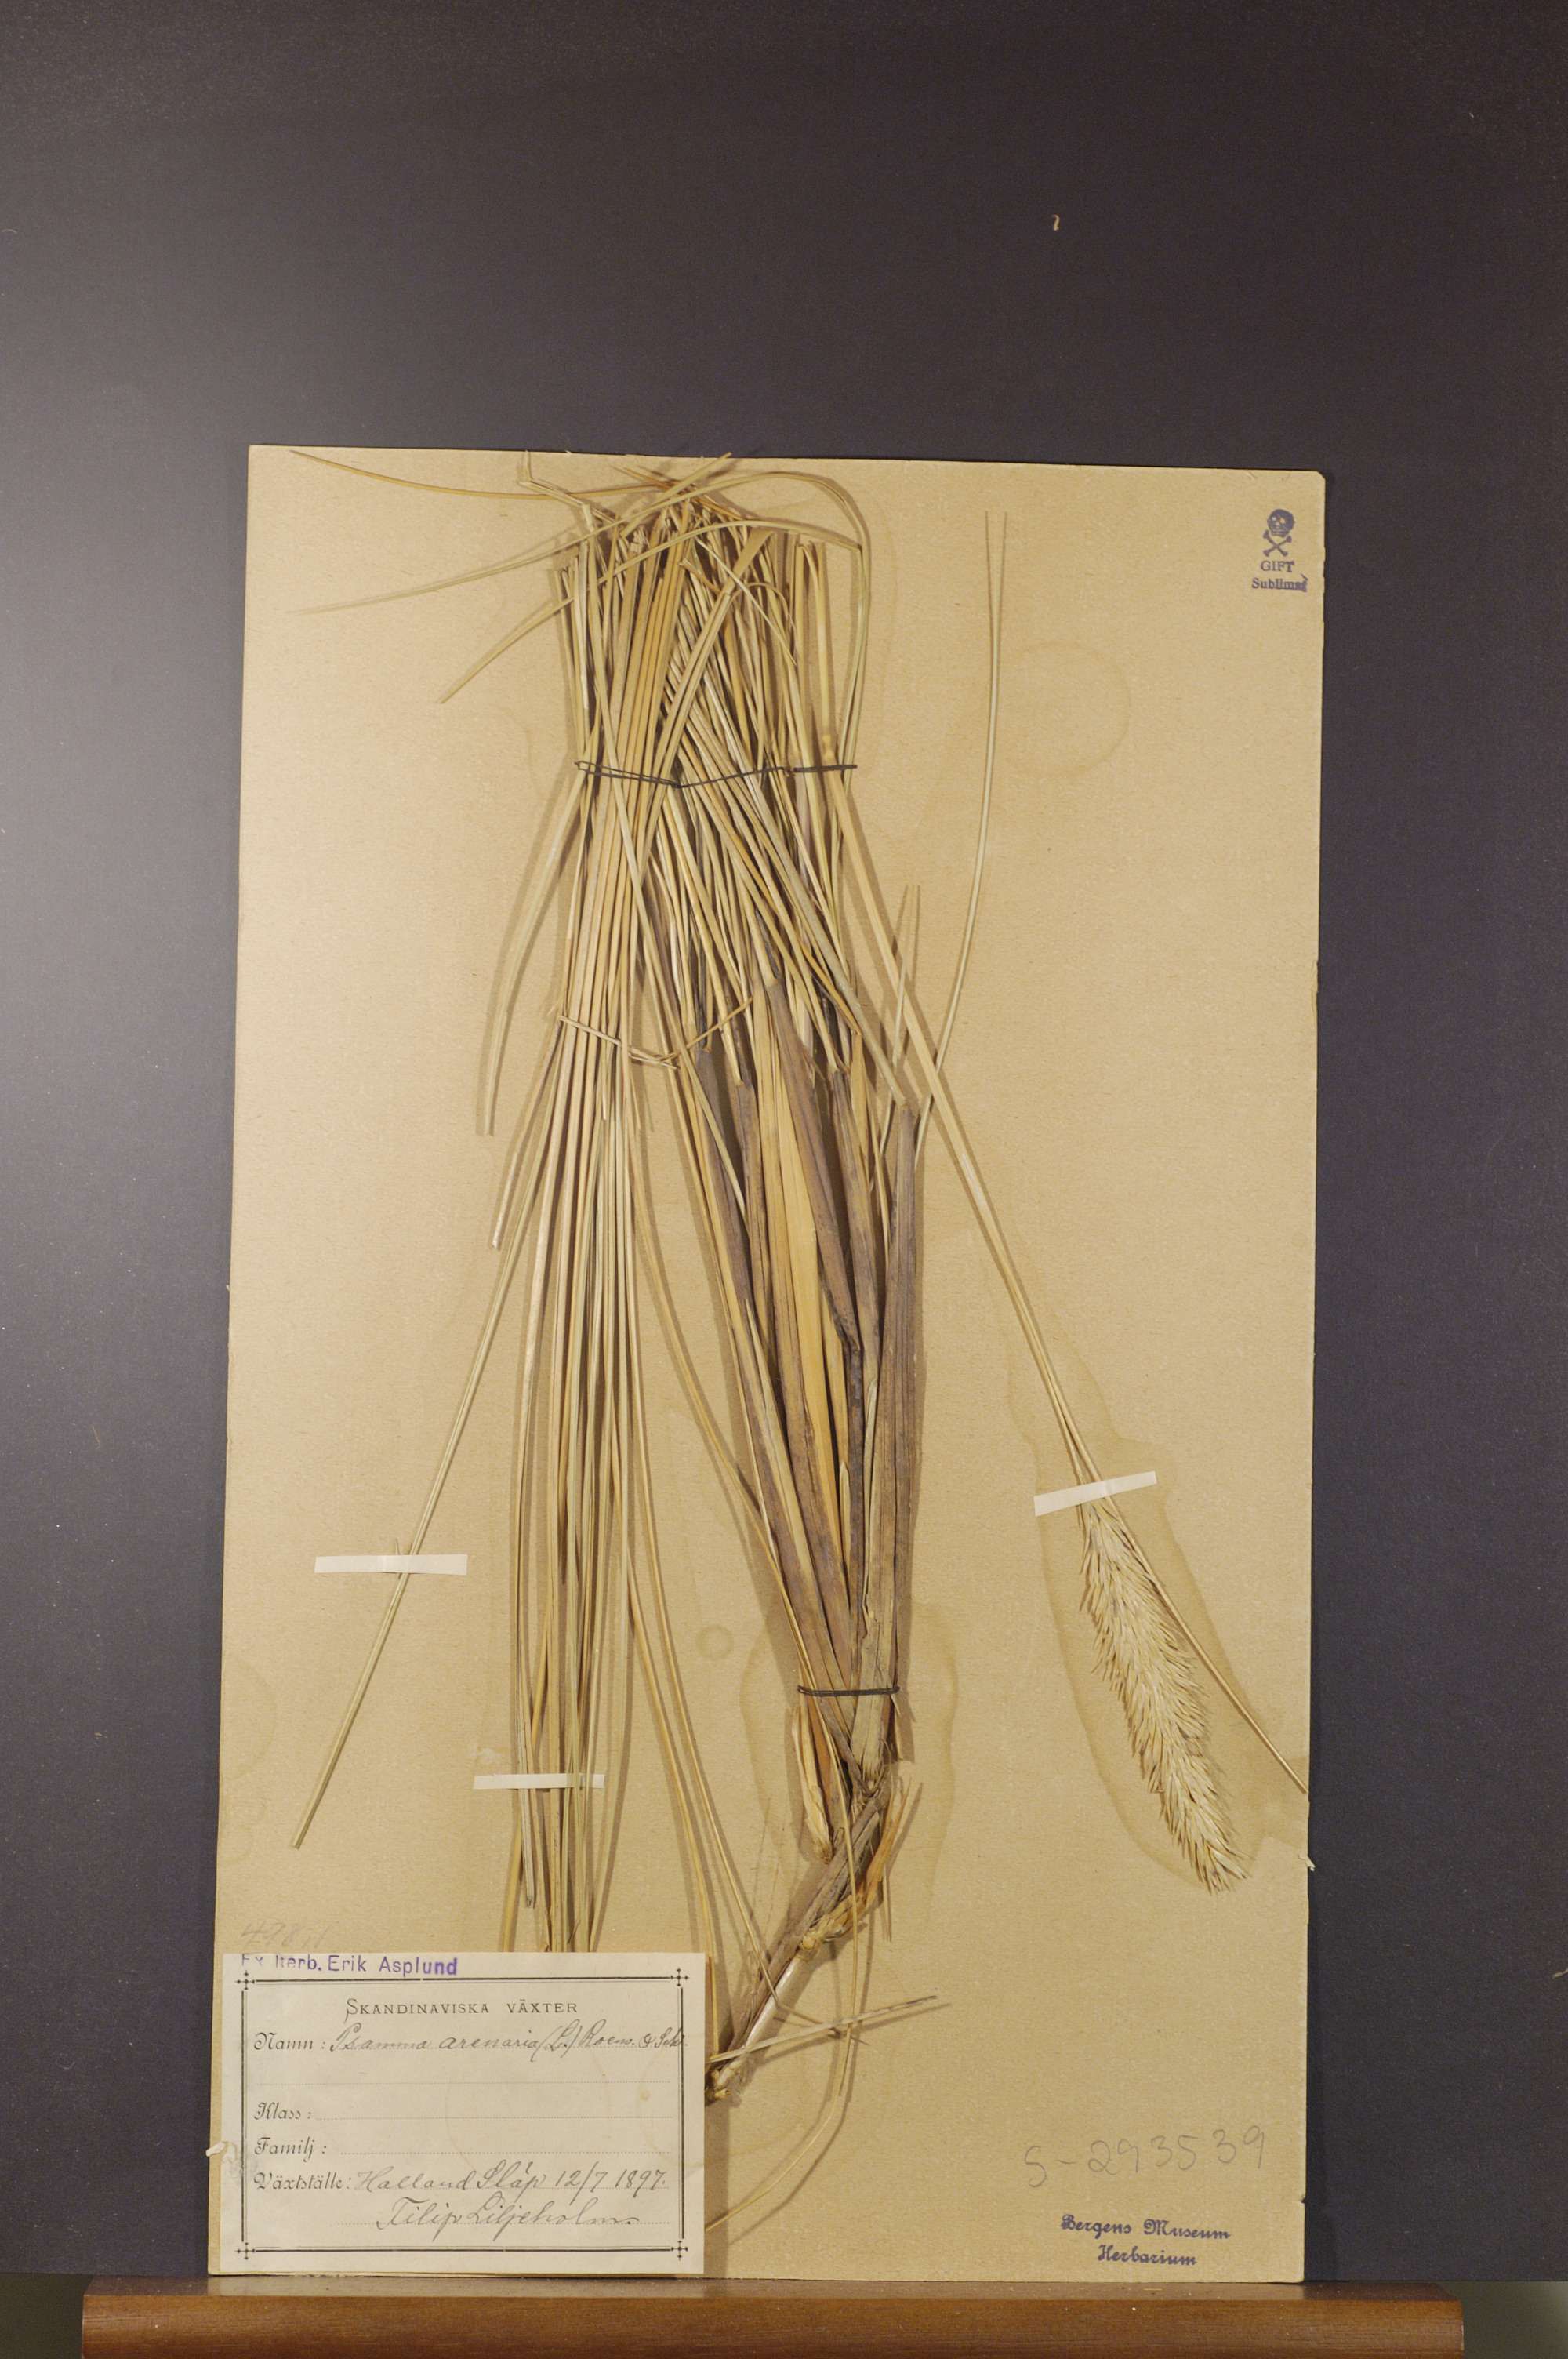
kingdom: Plantae
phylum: Tracheophyta
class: Liliopsida
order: Poales
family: Poaceae
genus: Calamagrostis
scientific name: Calamagrostis arenaria
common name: European beachgrass
